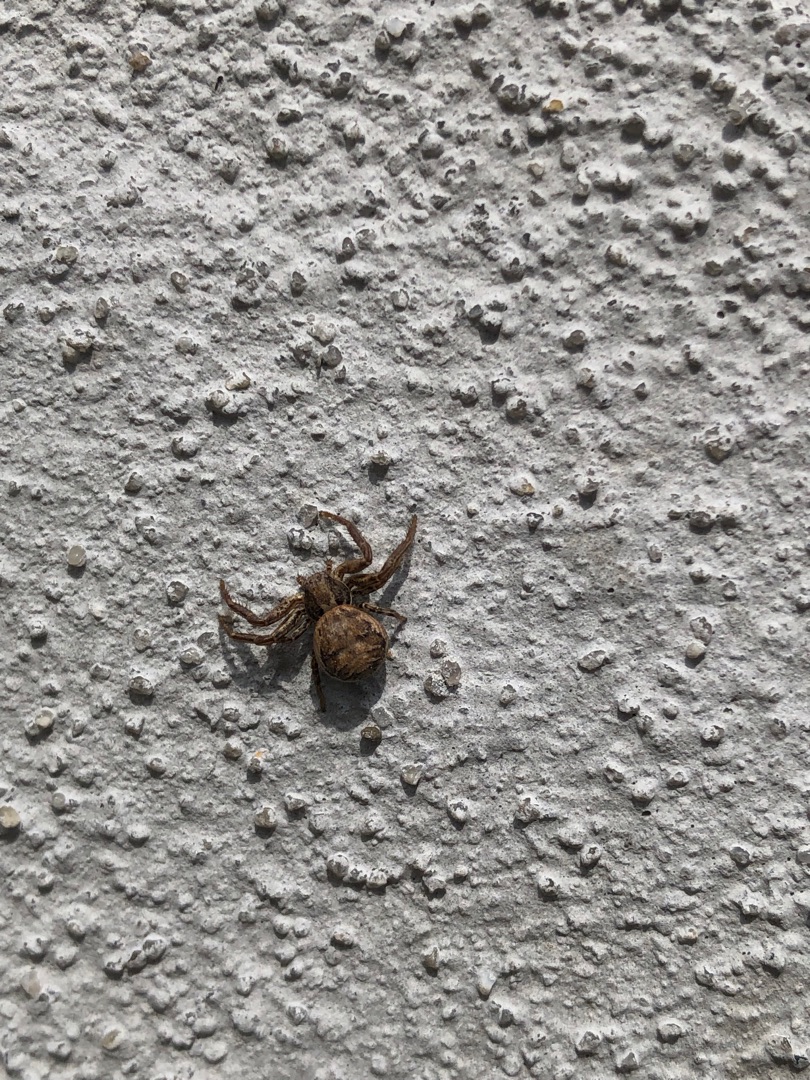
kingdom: Animalia
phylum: Arthropoda
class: Arachnida
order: Araneae
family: Thomisidae
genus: Xysticus
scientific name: Xysticus
